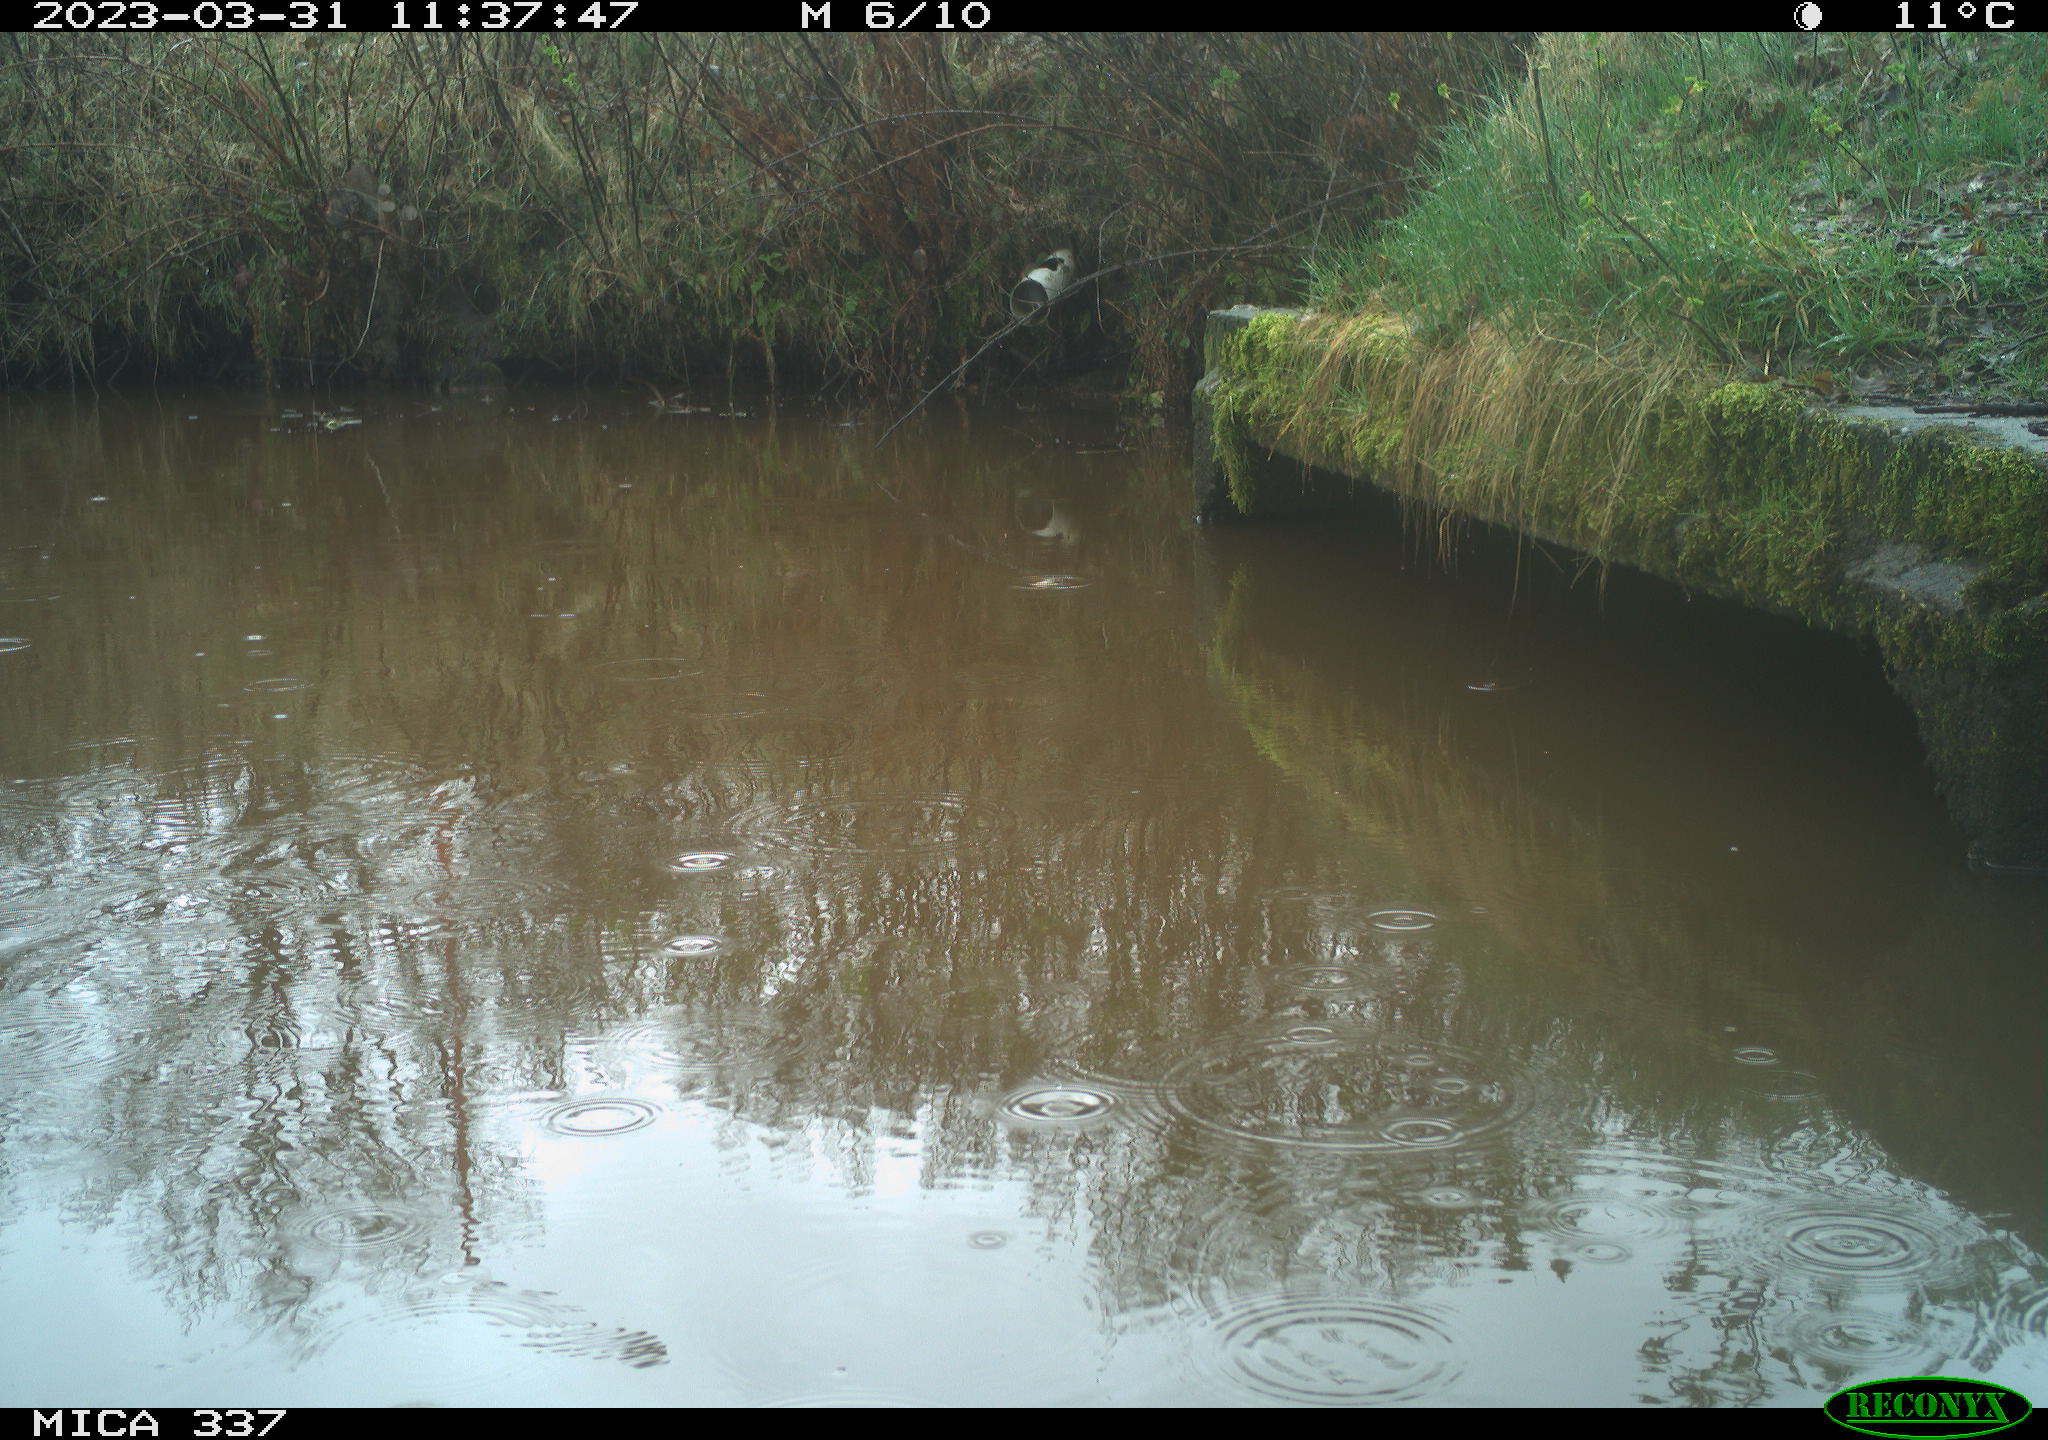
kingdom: Animalia
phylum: Chordata
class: Aves
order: Gruiformes
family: Rallidae
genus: Gallinula
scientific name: Gallinula chloropus
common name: Common moorhen
